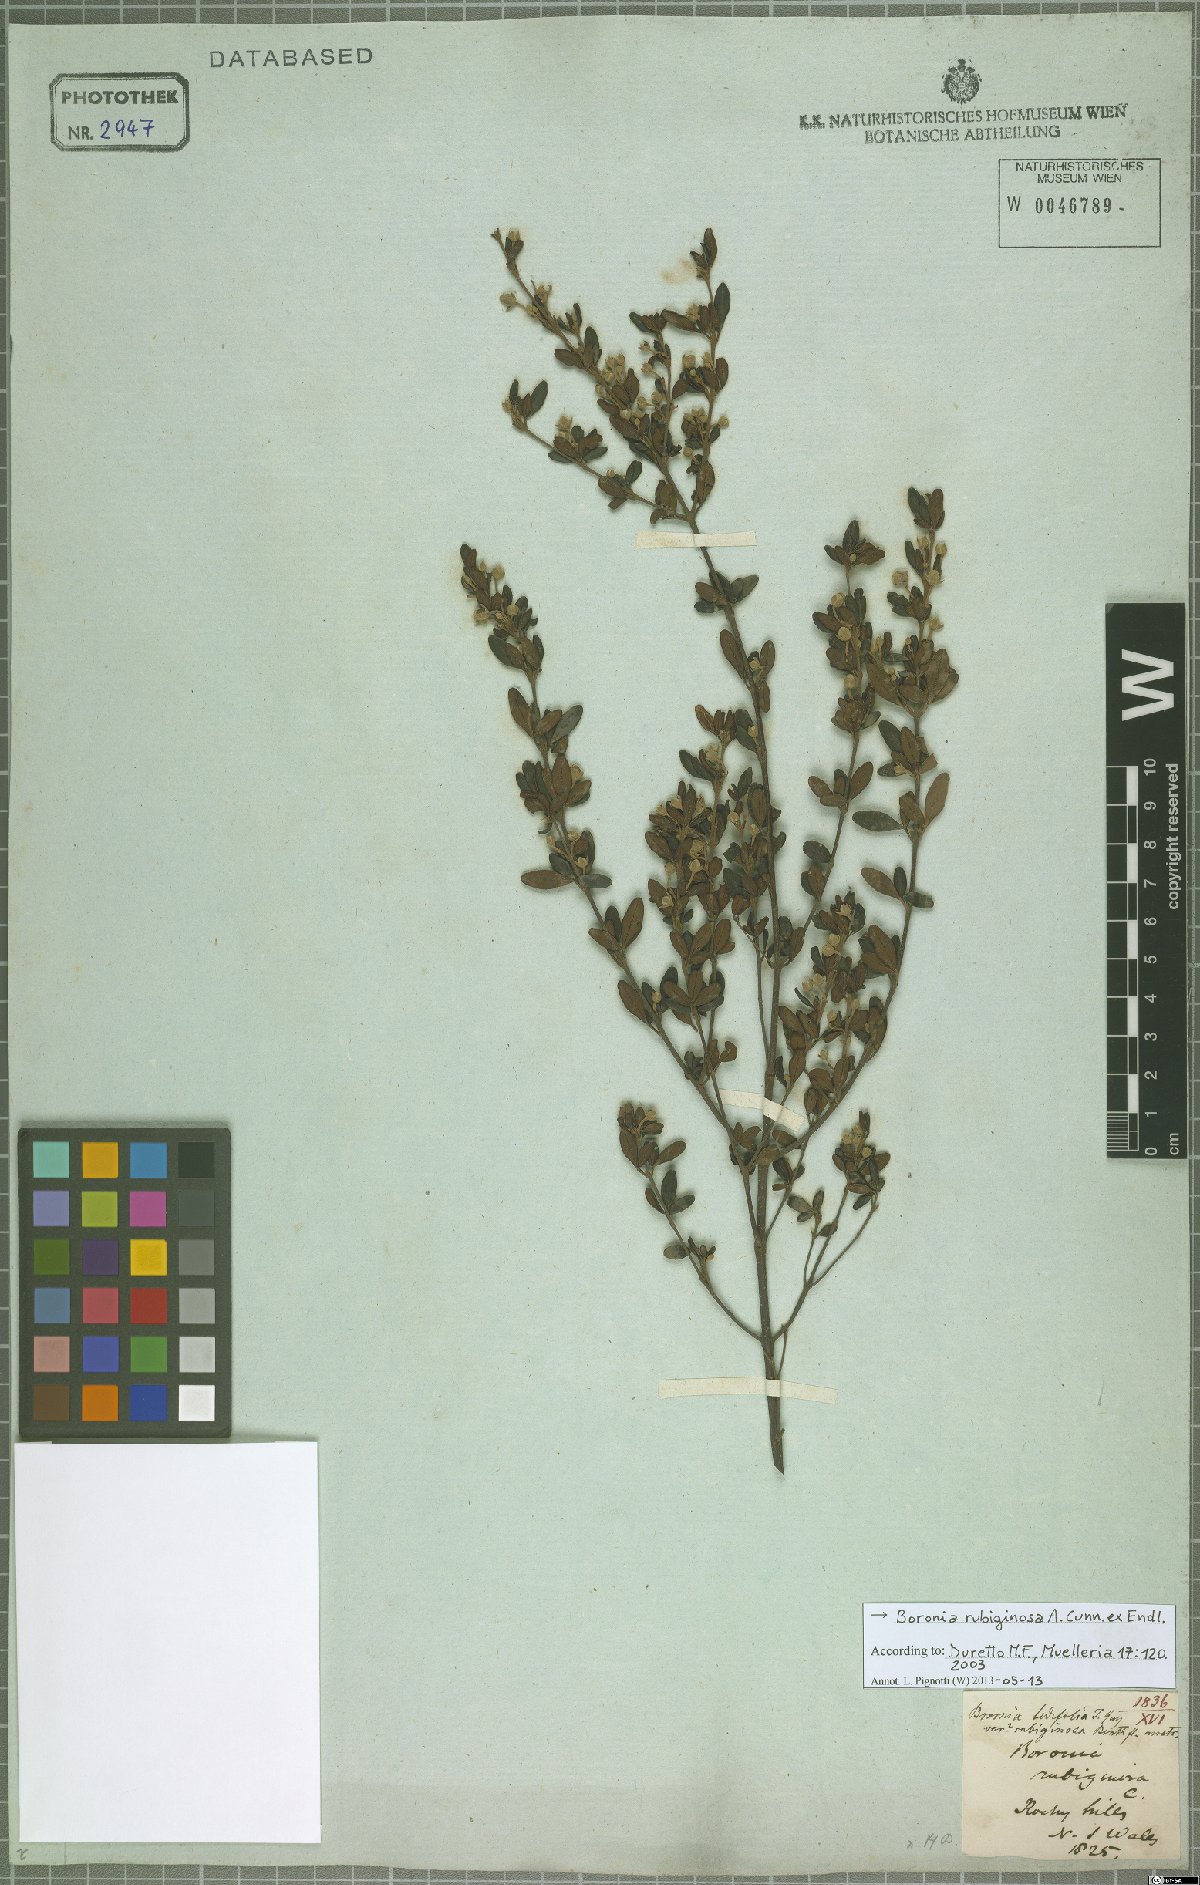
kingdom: Plantae
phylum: Tracheophyta
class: Magnoliopsida
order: Sapindales
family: Rutaceae
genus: Boronia
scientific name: Boronia rubiginosa
